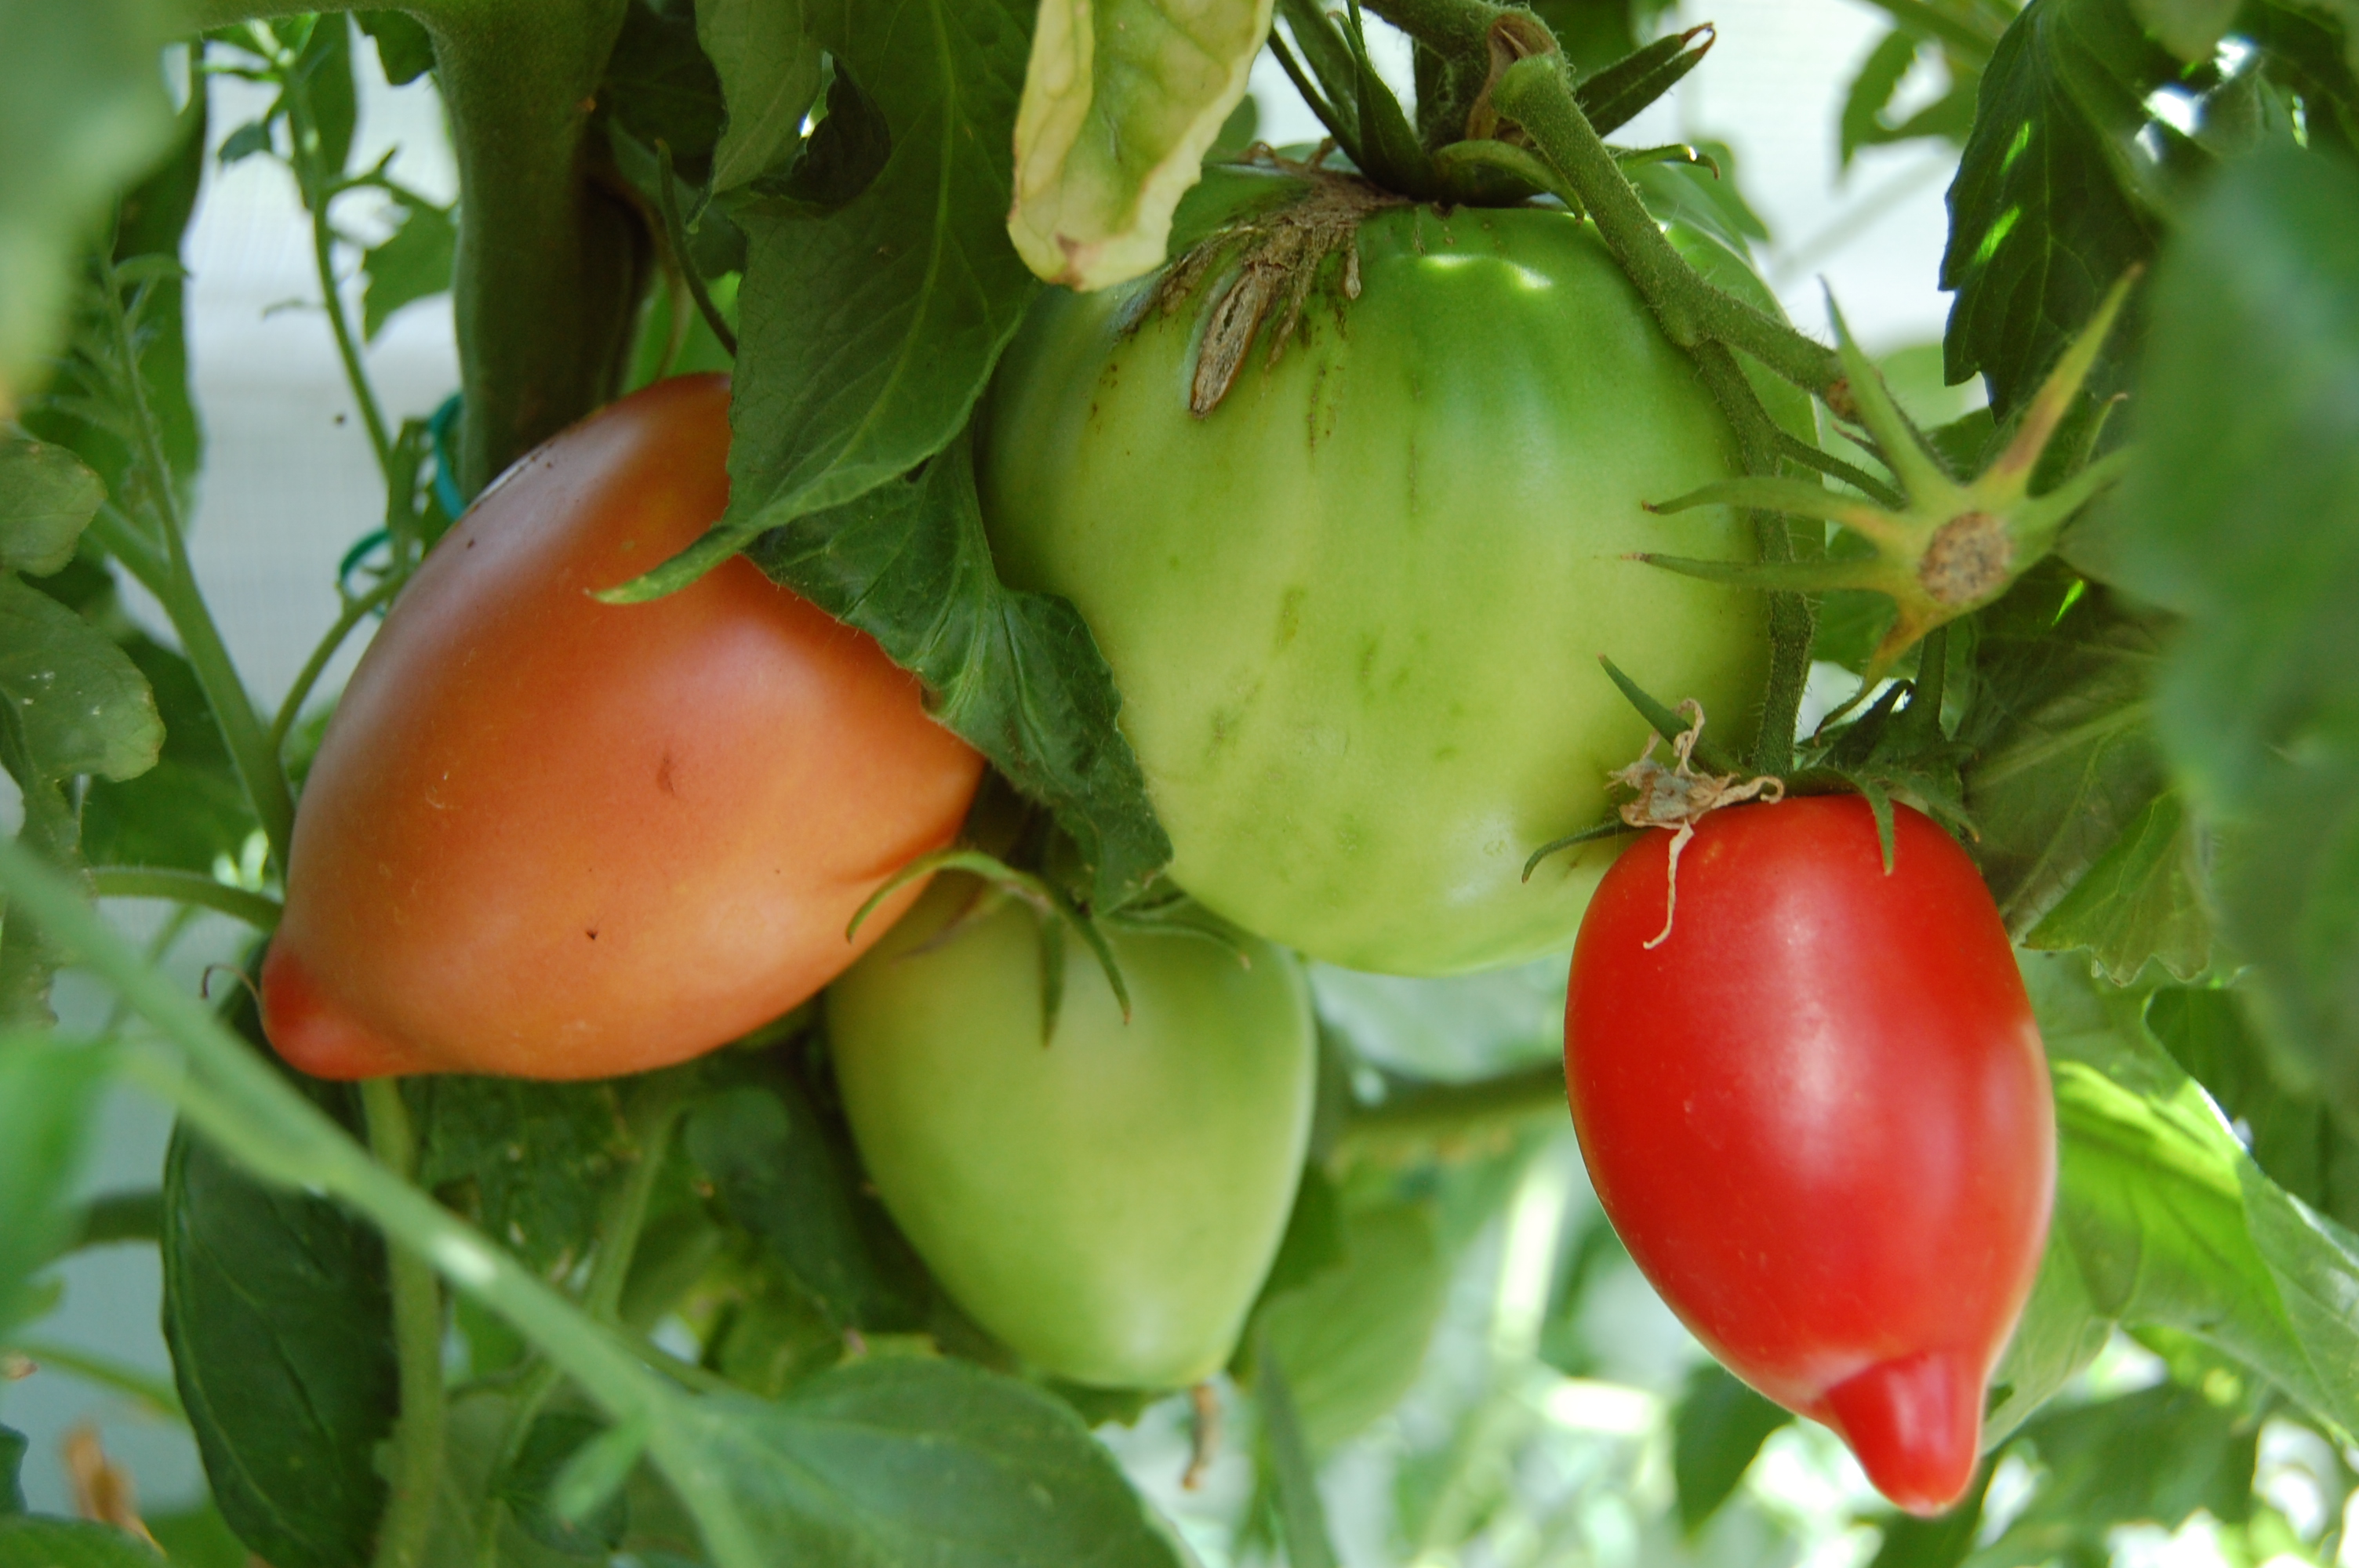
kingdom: Plantae
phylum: Tracheophyta
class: Magnoliopsida
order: Solanales
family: Solanaceae
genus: Solanum
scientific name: Solanum lycopersicum
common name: Garden tomato
